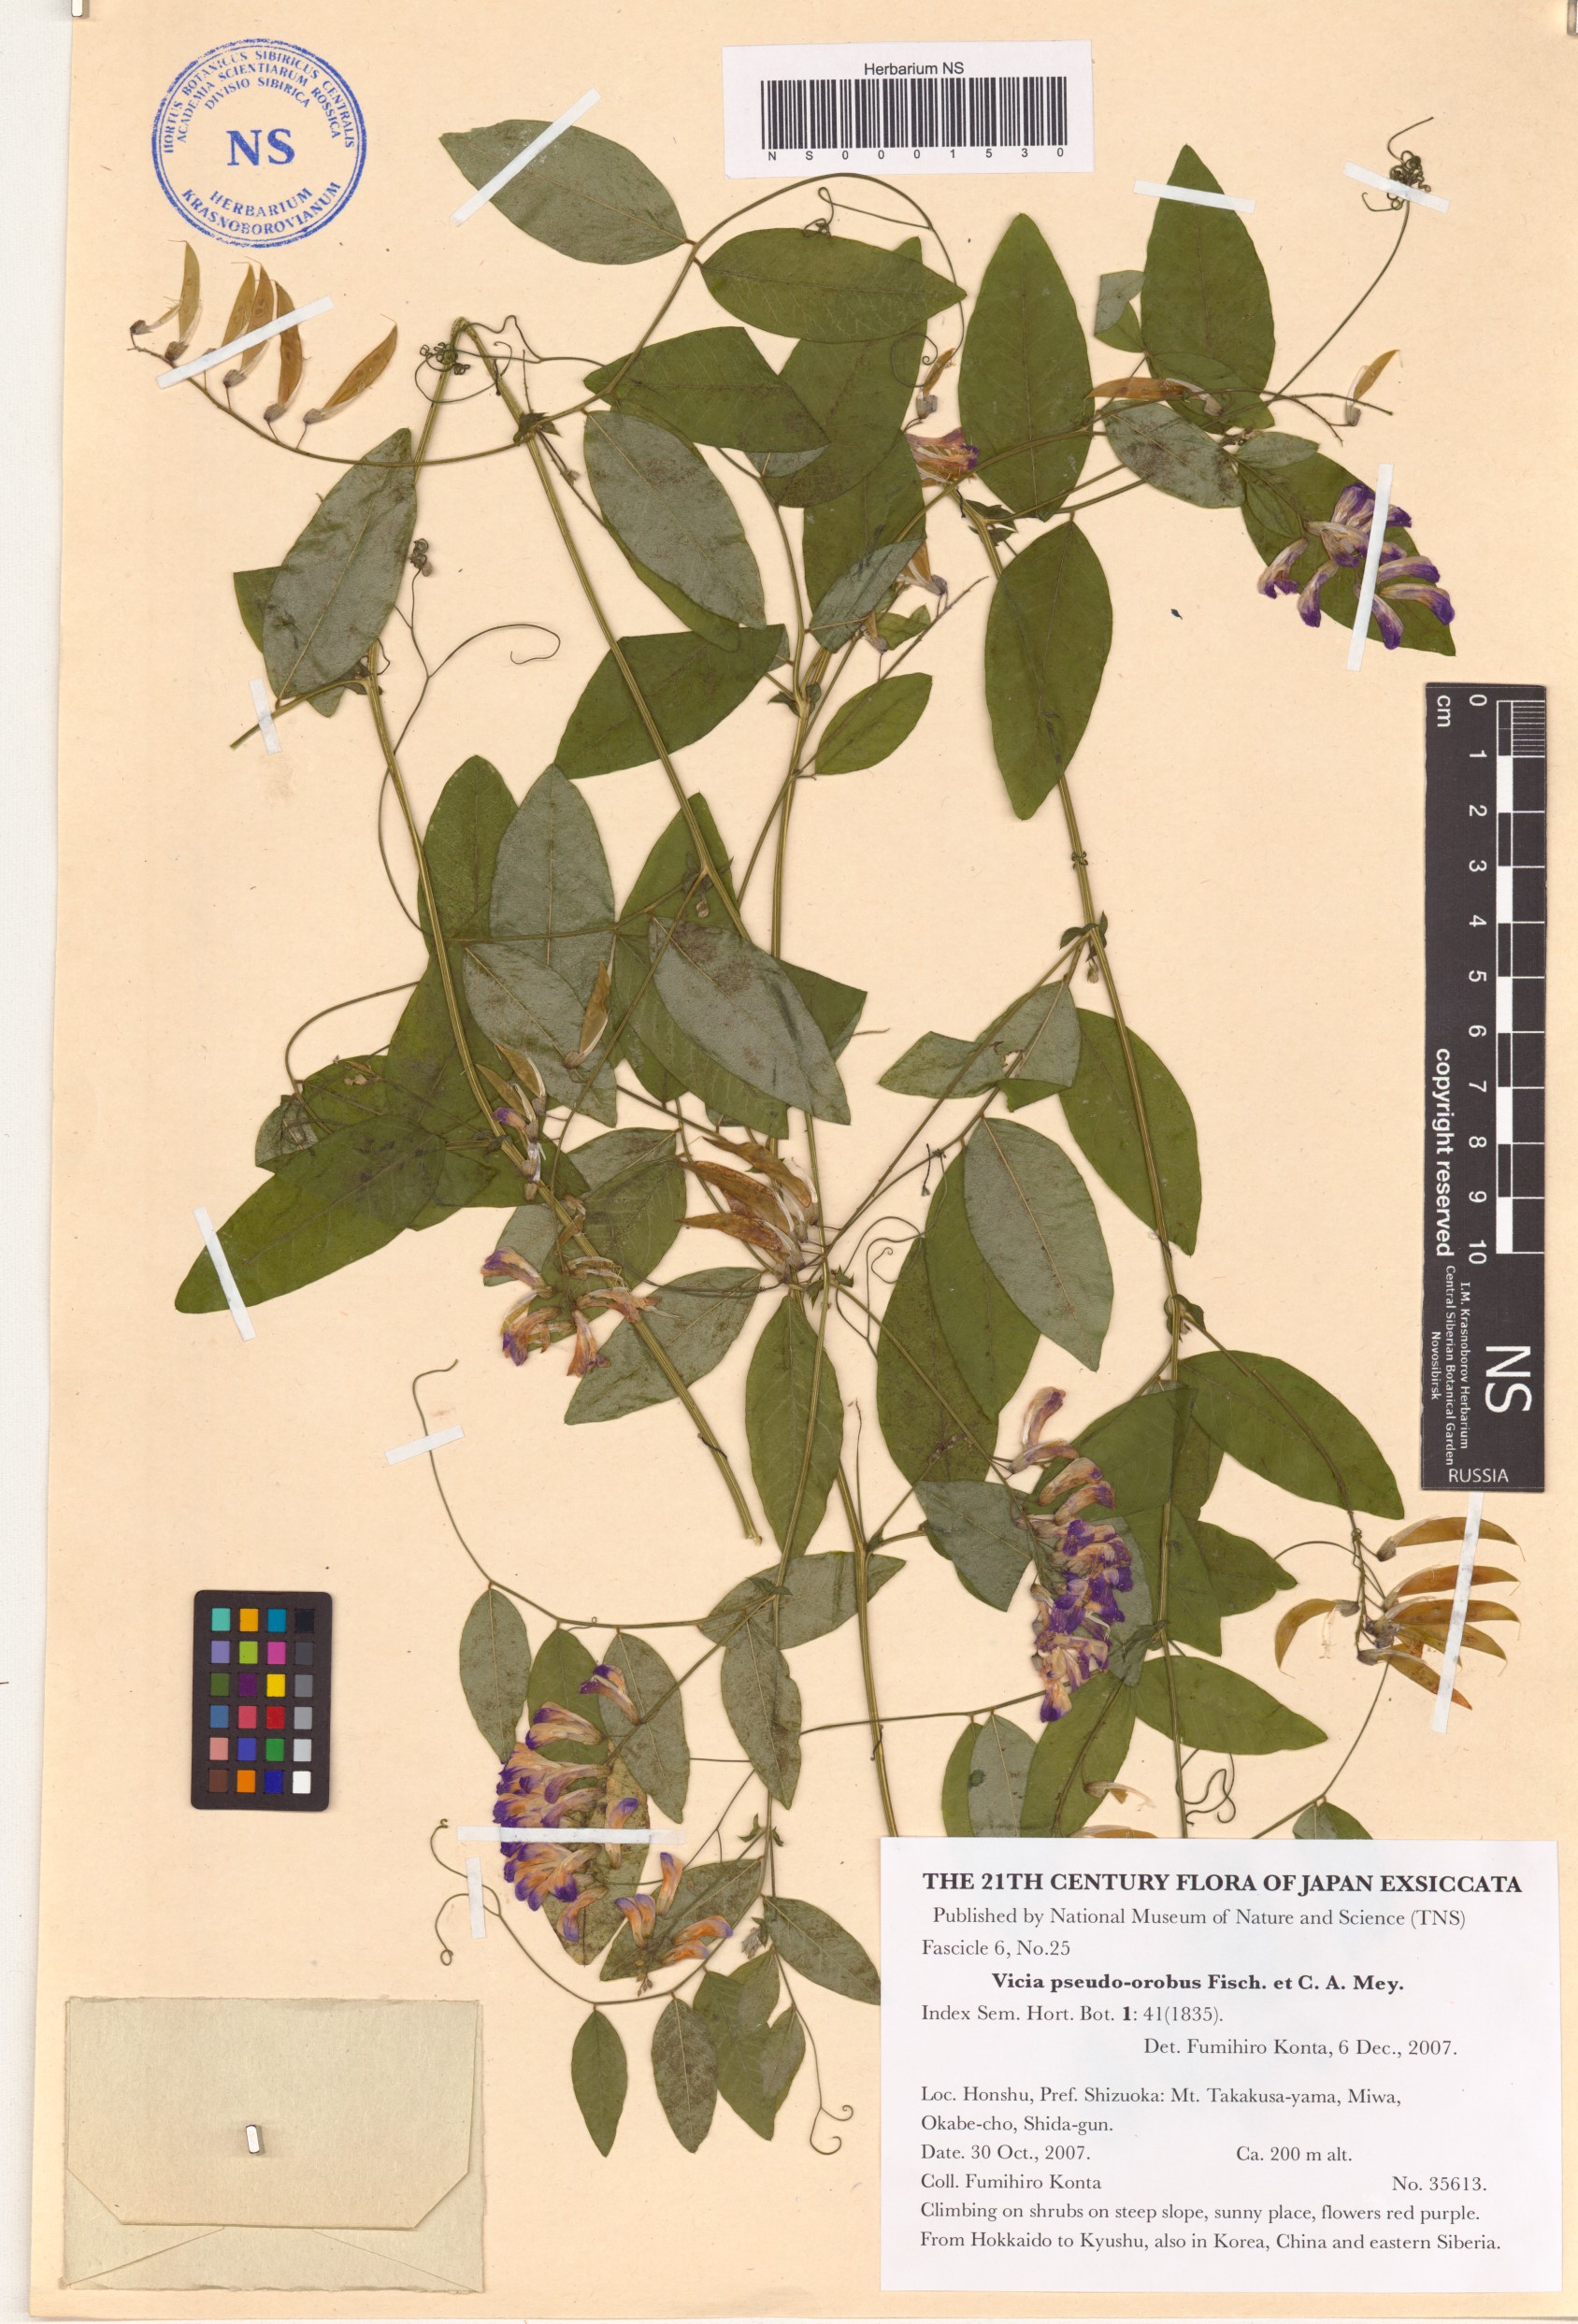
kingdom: Plantae
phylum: Tracheophyta
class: Magnoliopsida
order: Fabales
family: Fabaceae
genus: Vicia
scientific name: Vicia pseudo-orobus
